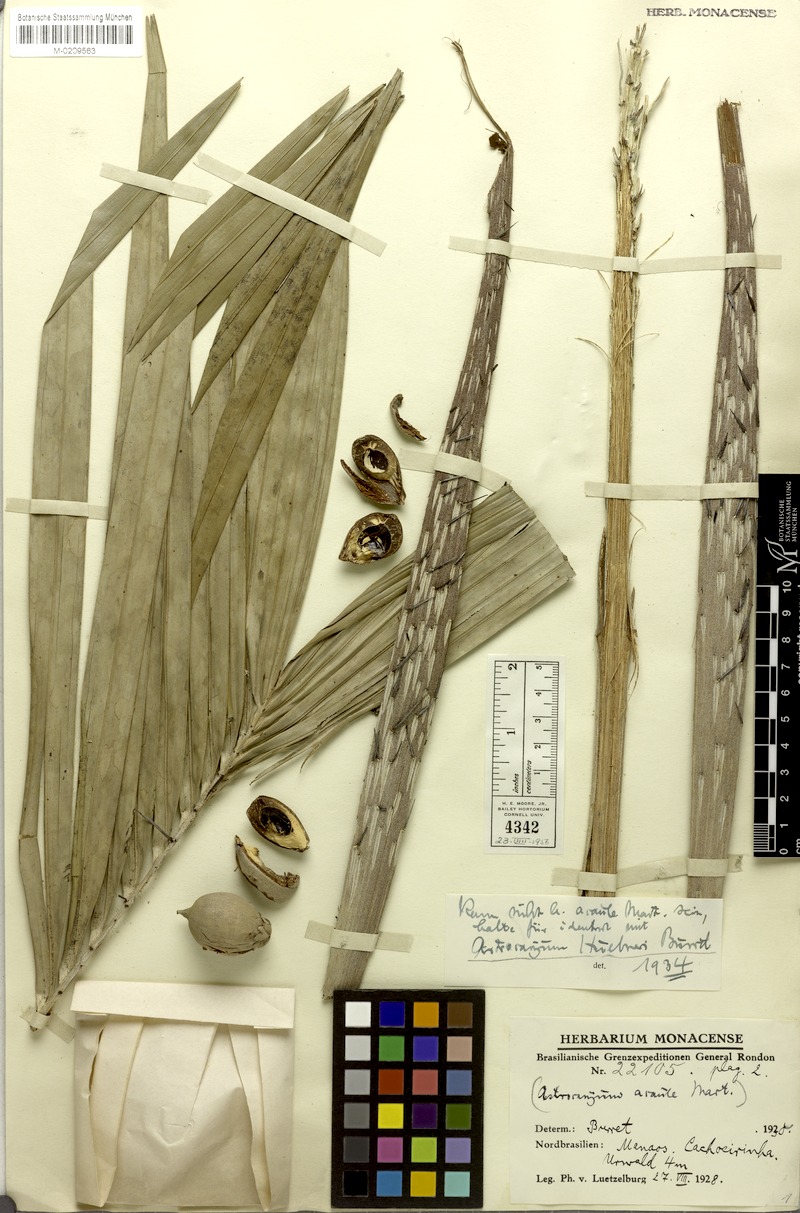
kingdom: Plantae
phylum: Tracheophyta
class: Liliopsida
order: Arecales
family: Arecaceae
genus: Astrocaryum
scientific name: Astrocaryum acaule
